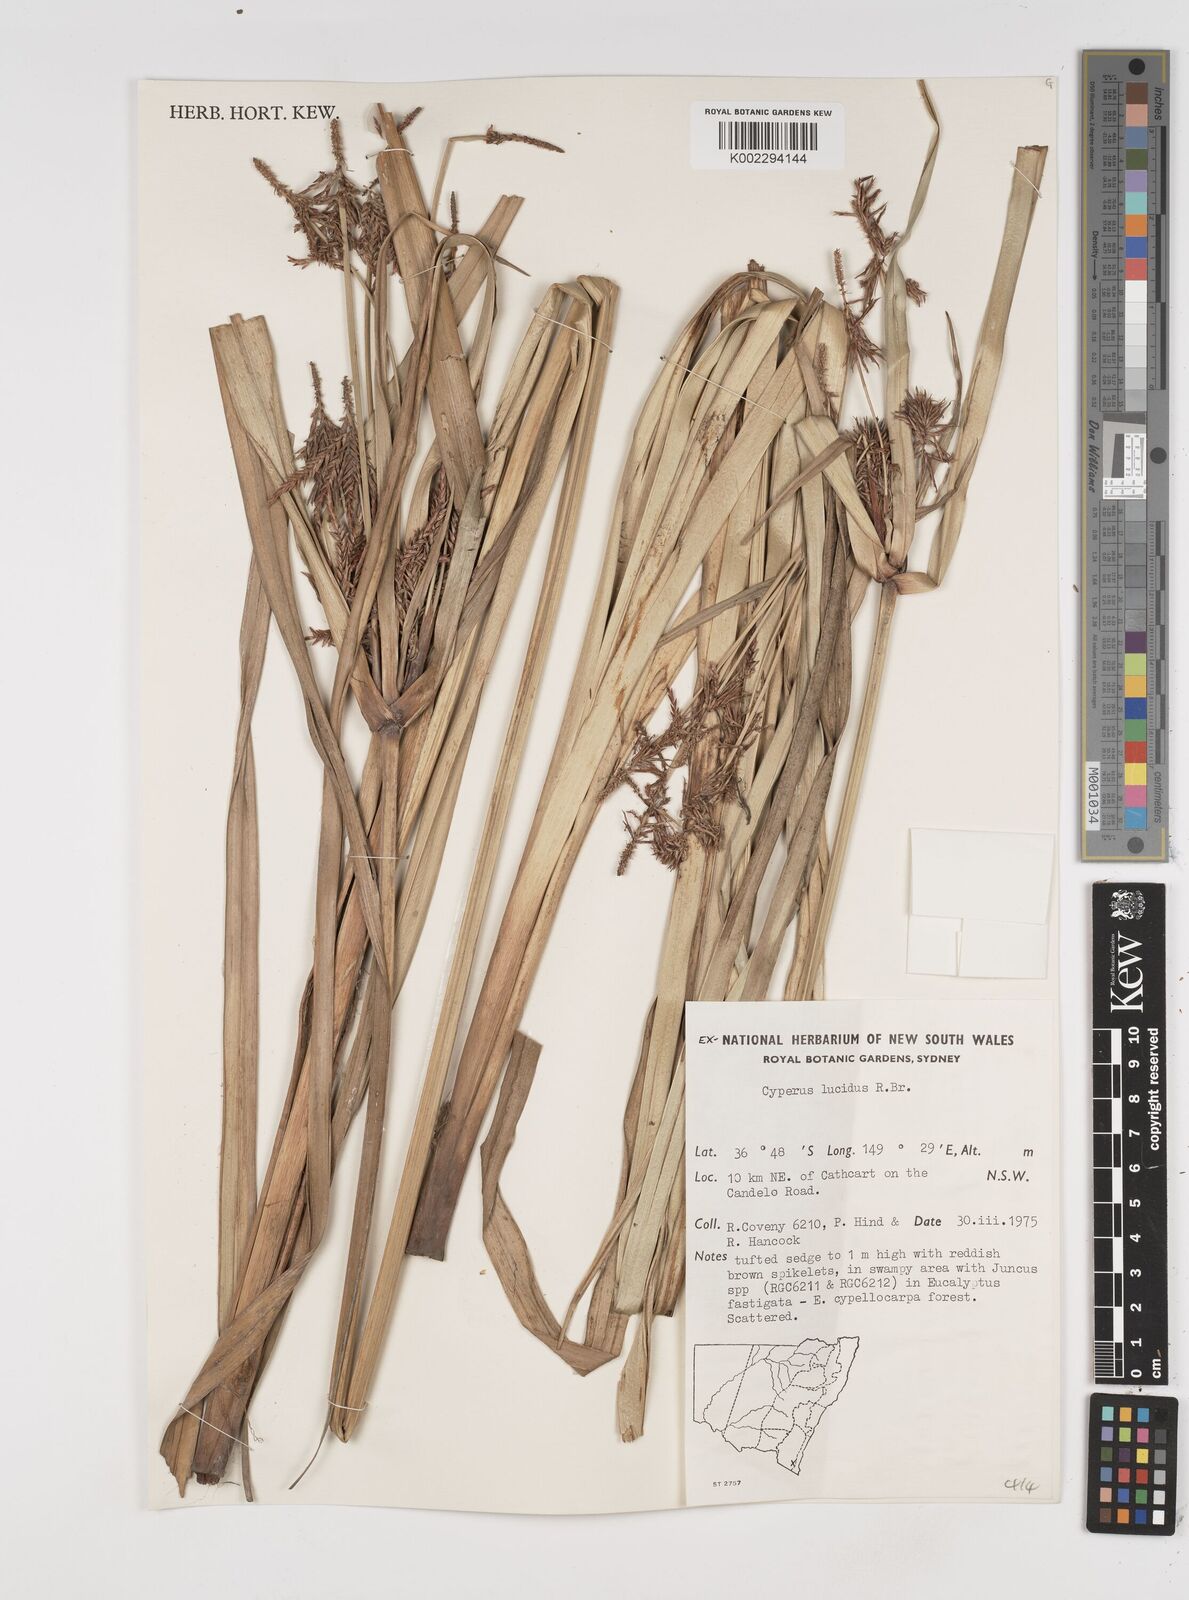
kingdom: Plantae
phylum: Tracheophyta
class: Liliopsida
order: Poales
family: Cyperaceae
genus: Cyperus
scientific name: Cyperus lucidus
